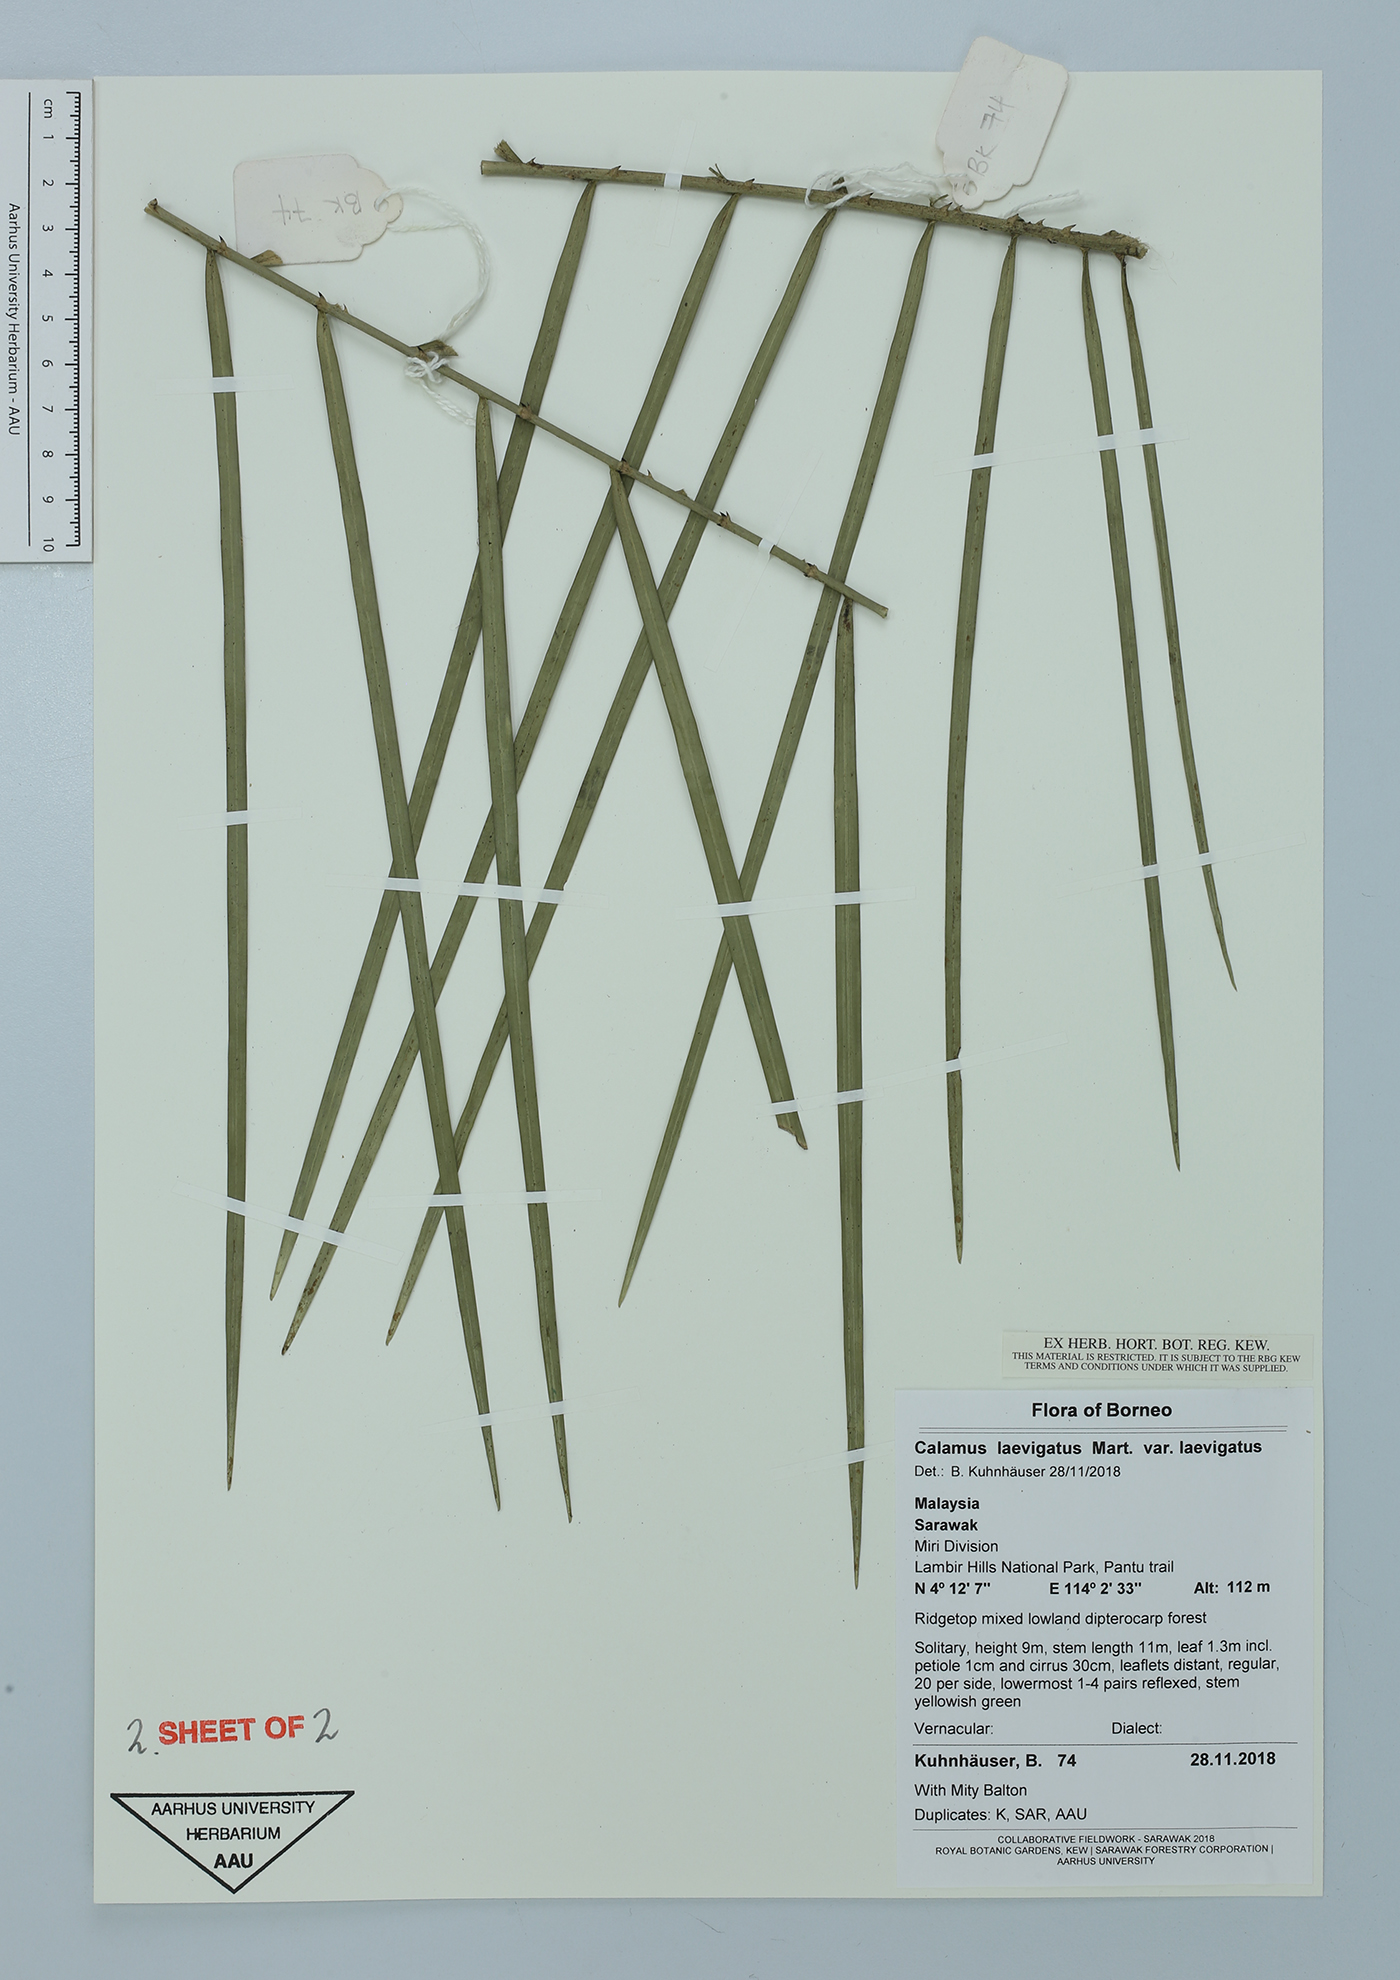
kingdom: Plantae
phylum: Tracheophyta
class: Liliopsida
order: Arecales
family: Arecaceae
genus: Calamus
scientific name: Calamus laevigatus
